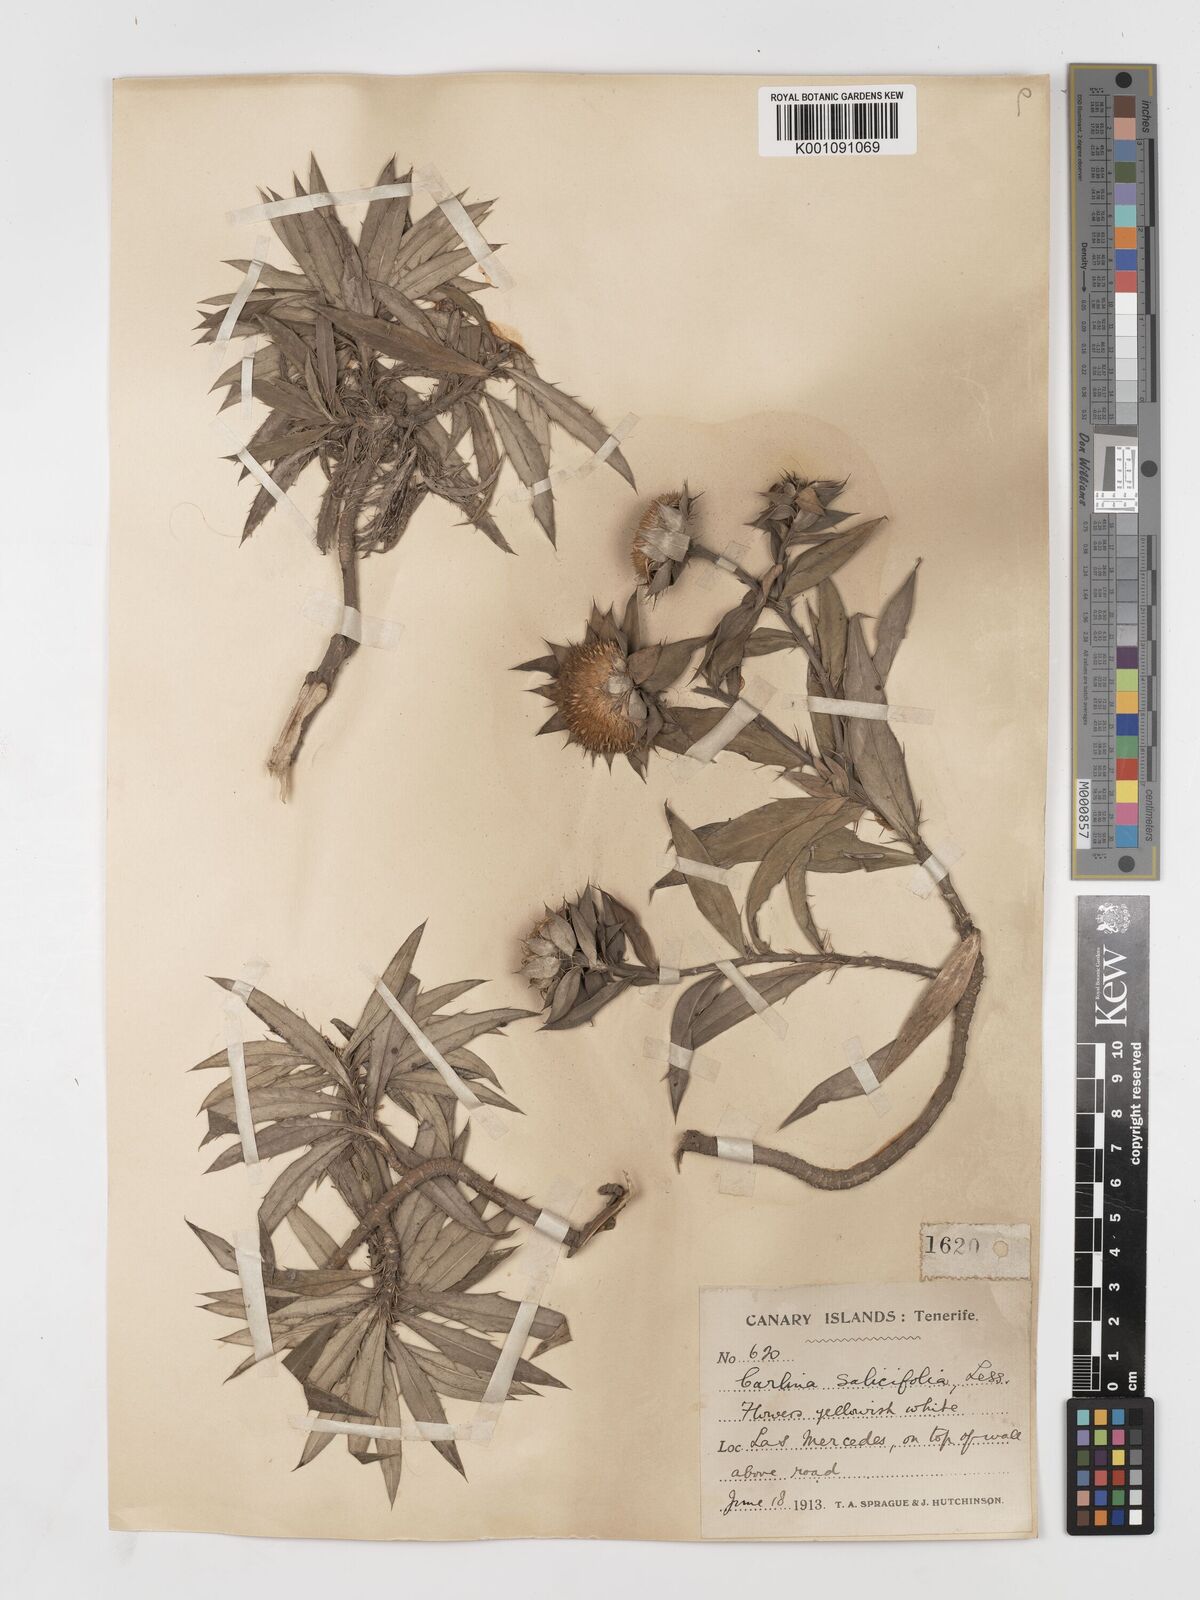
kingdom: Plantae
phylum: Tracheophyta
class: Magnoliopsida
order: Asterales
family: Asteraceae
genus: Carlina
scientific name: Carlina salicifolia
